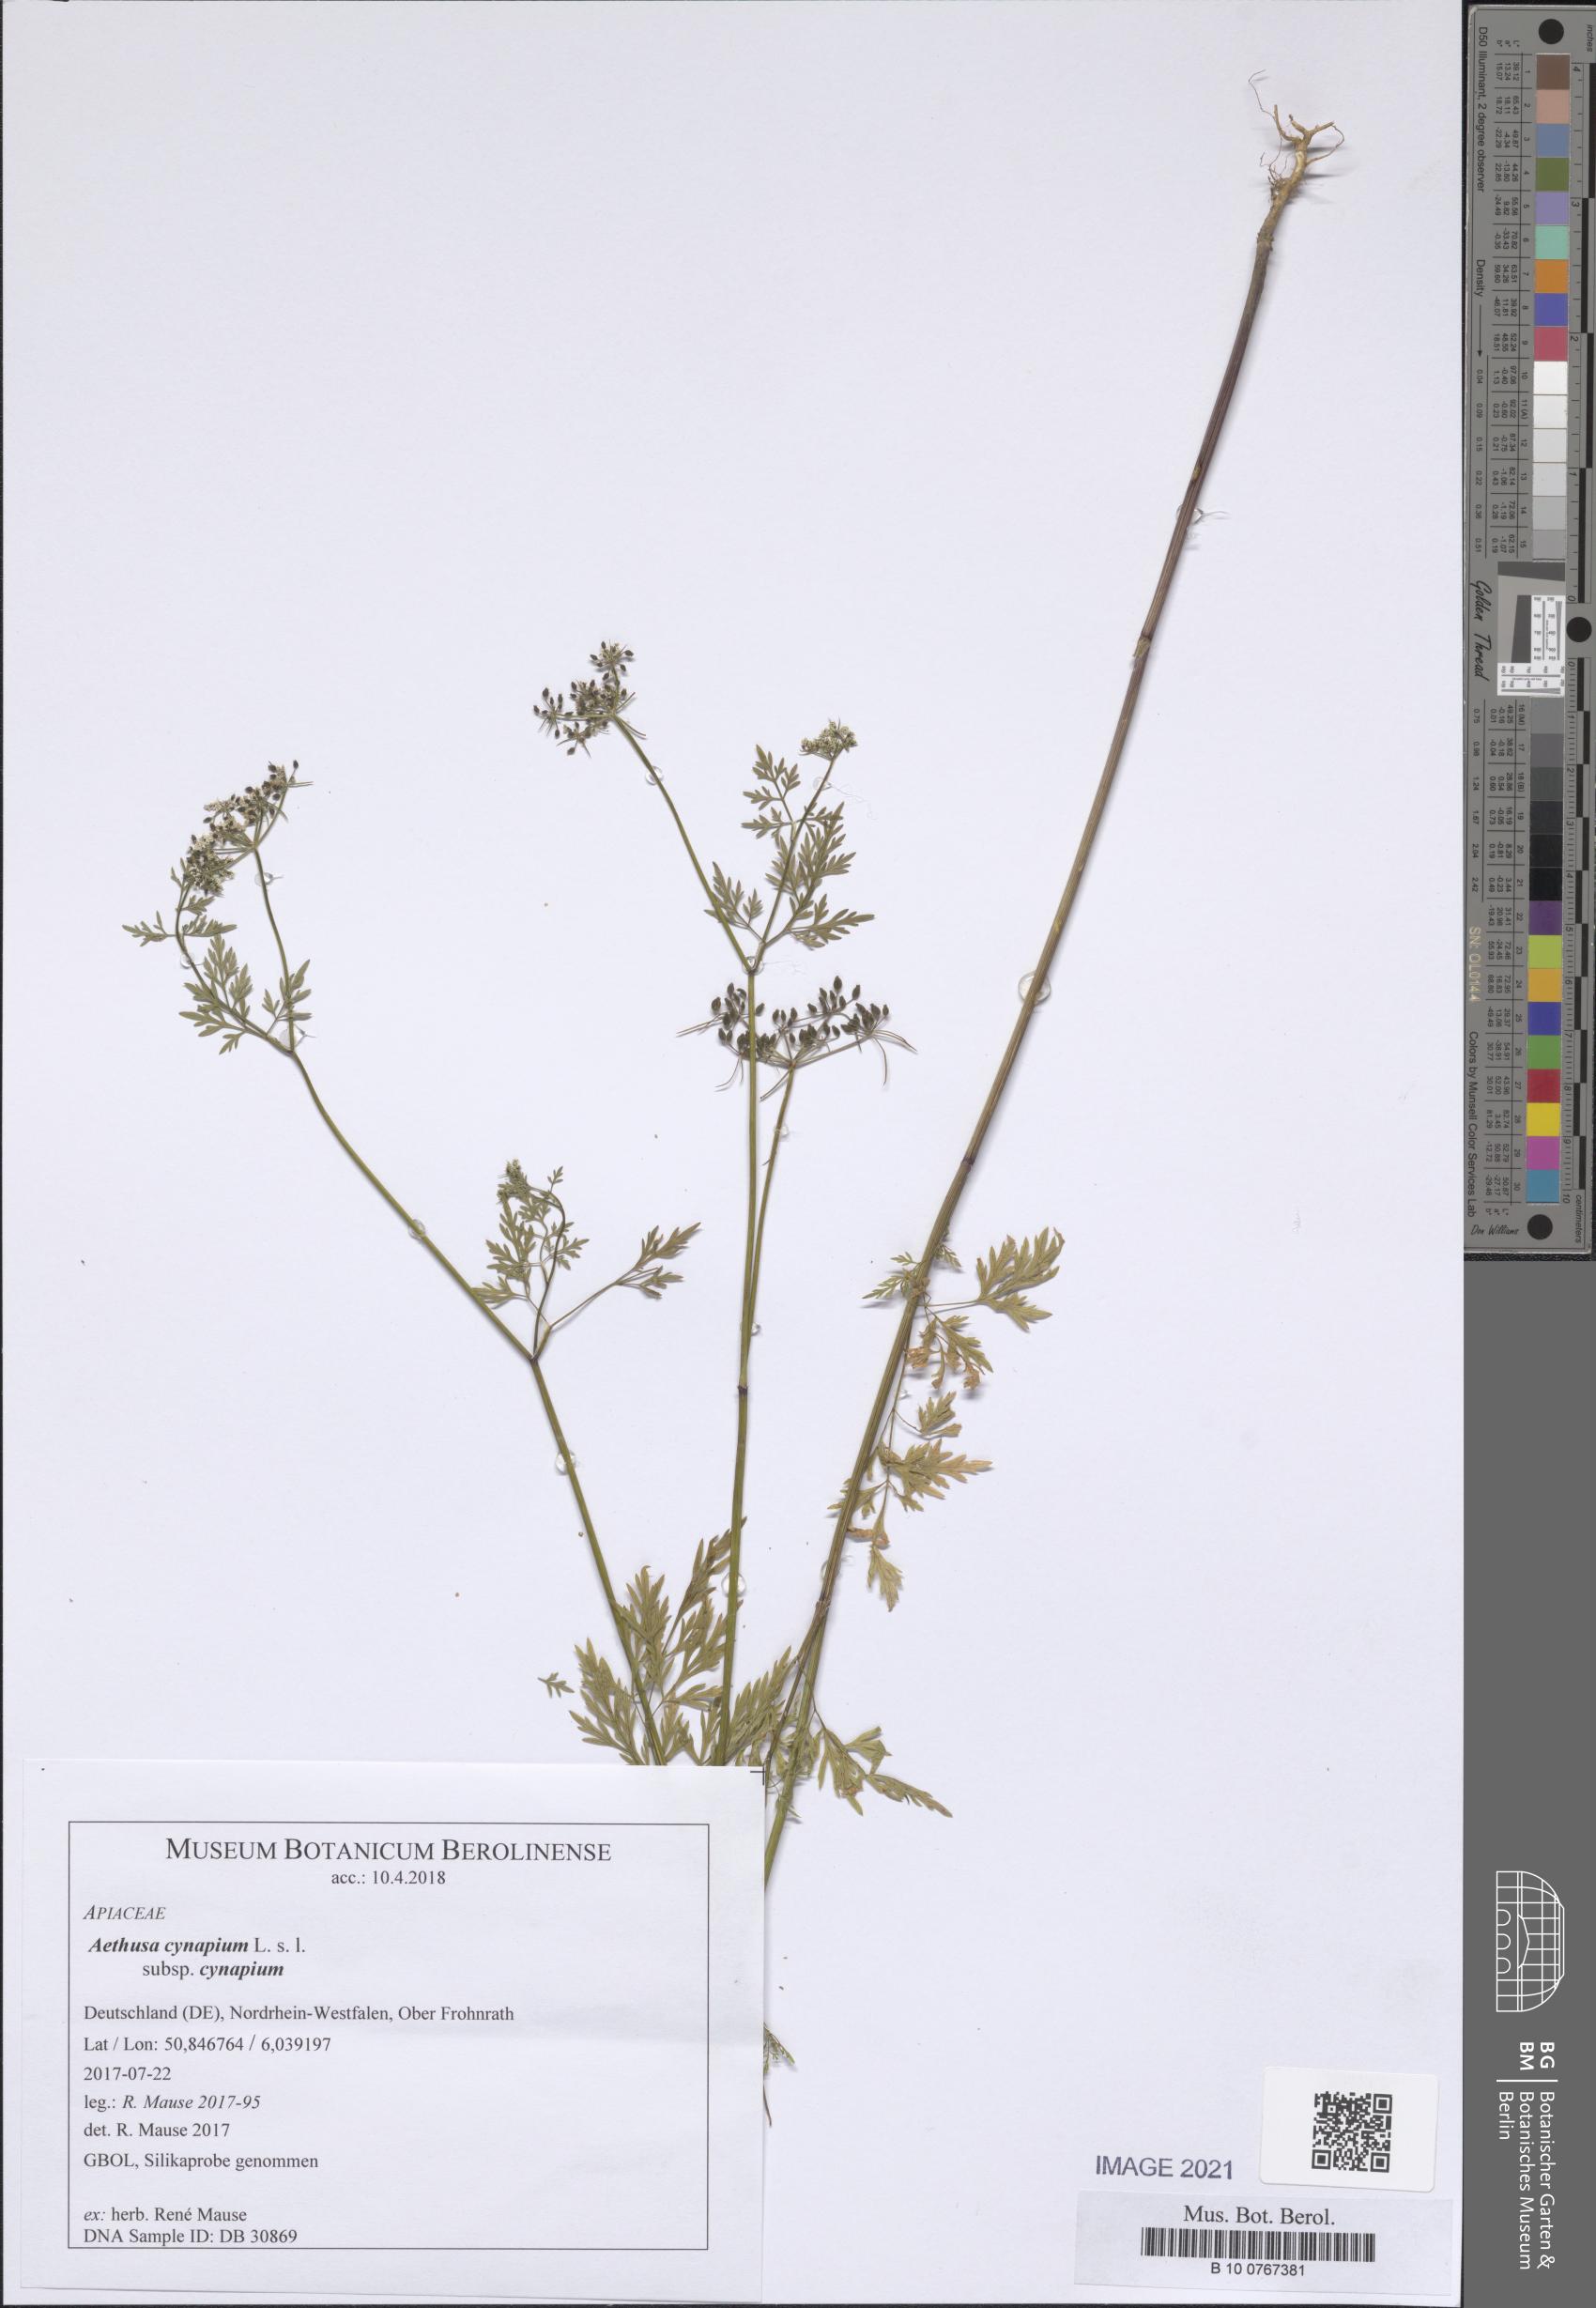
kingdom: Plantae
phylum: Tracheophyta
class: Magnoliopsida
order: Apiales
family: Apiaceae
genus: Aethusa
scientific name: Aethusa cynapium
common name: Fool's parsley
